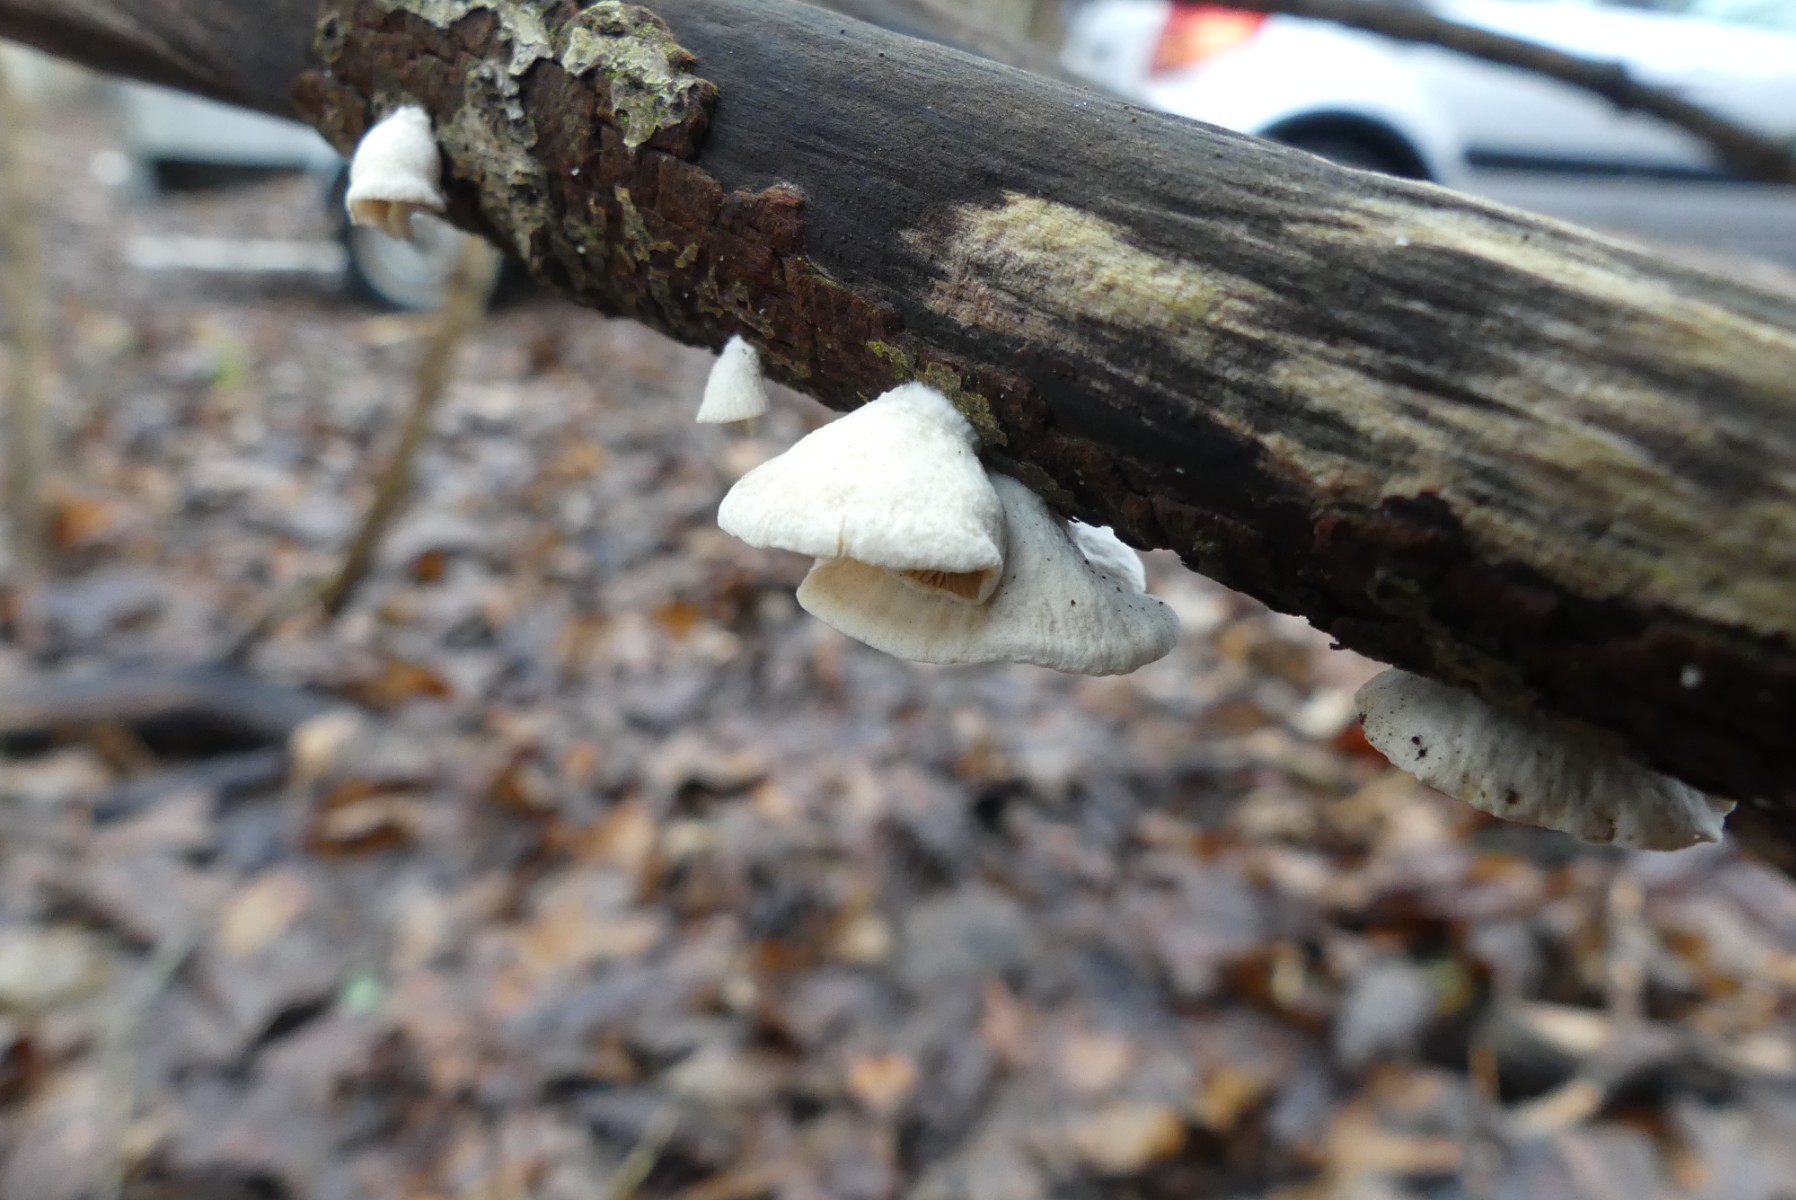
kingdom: Fungi
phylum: Basidiomycota
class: Agaricomycetes
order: Agaricales
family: Crepidotaceae
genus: Crepidotus
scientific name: Crepidotus
